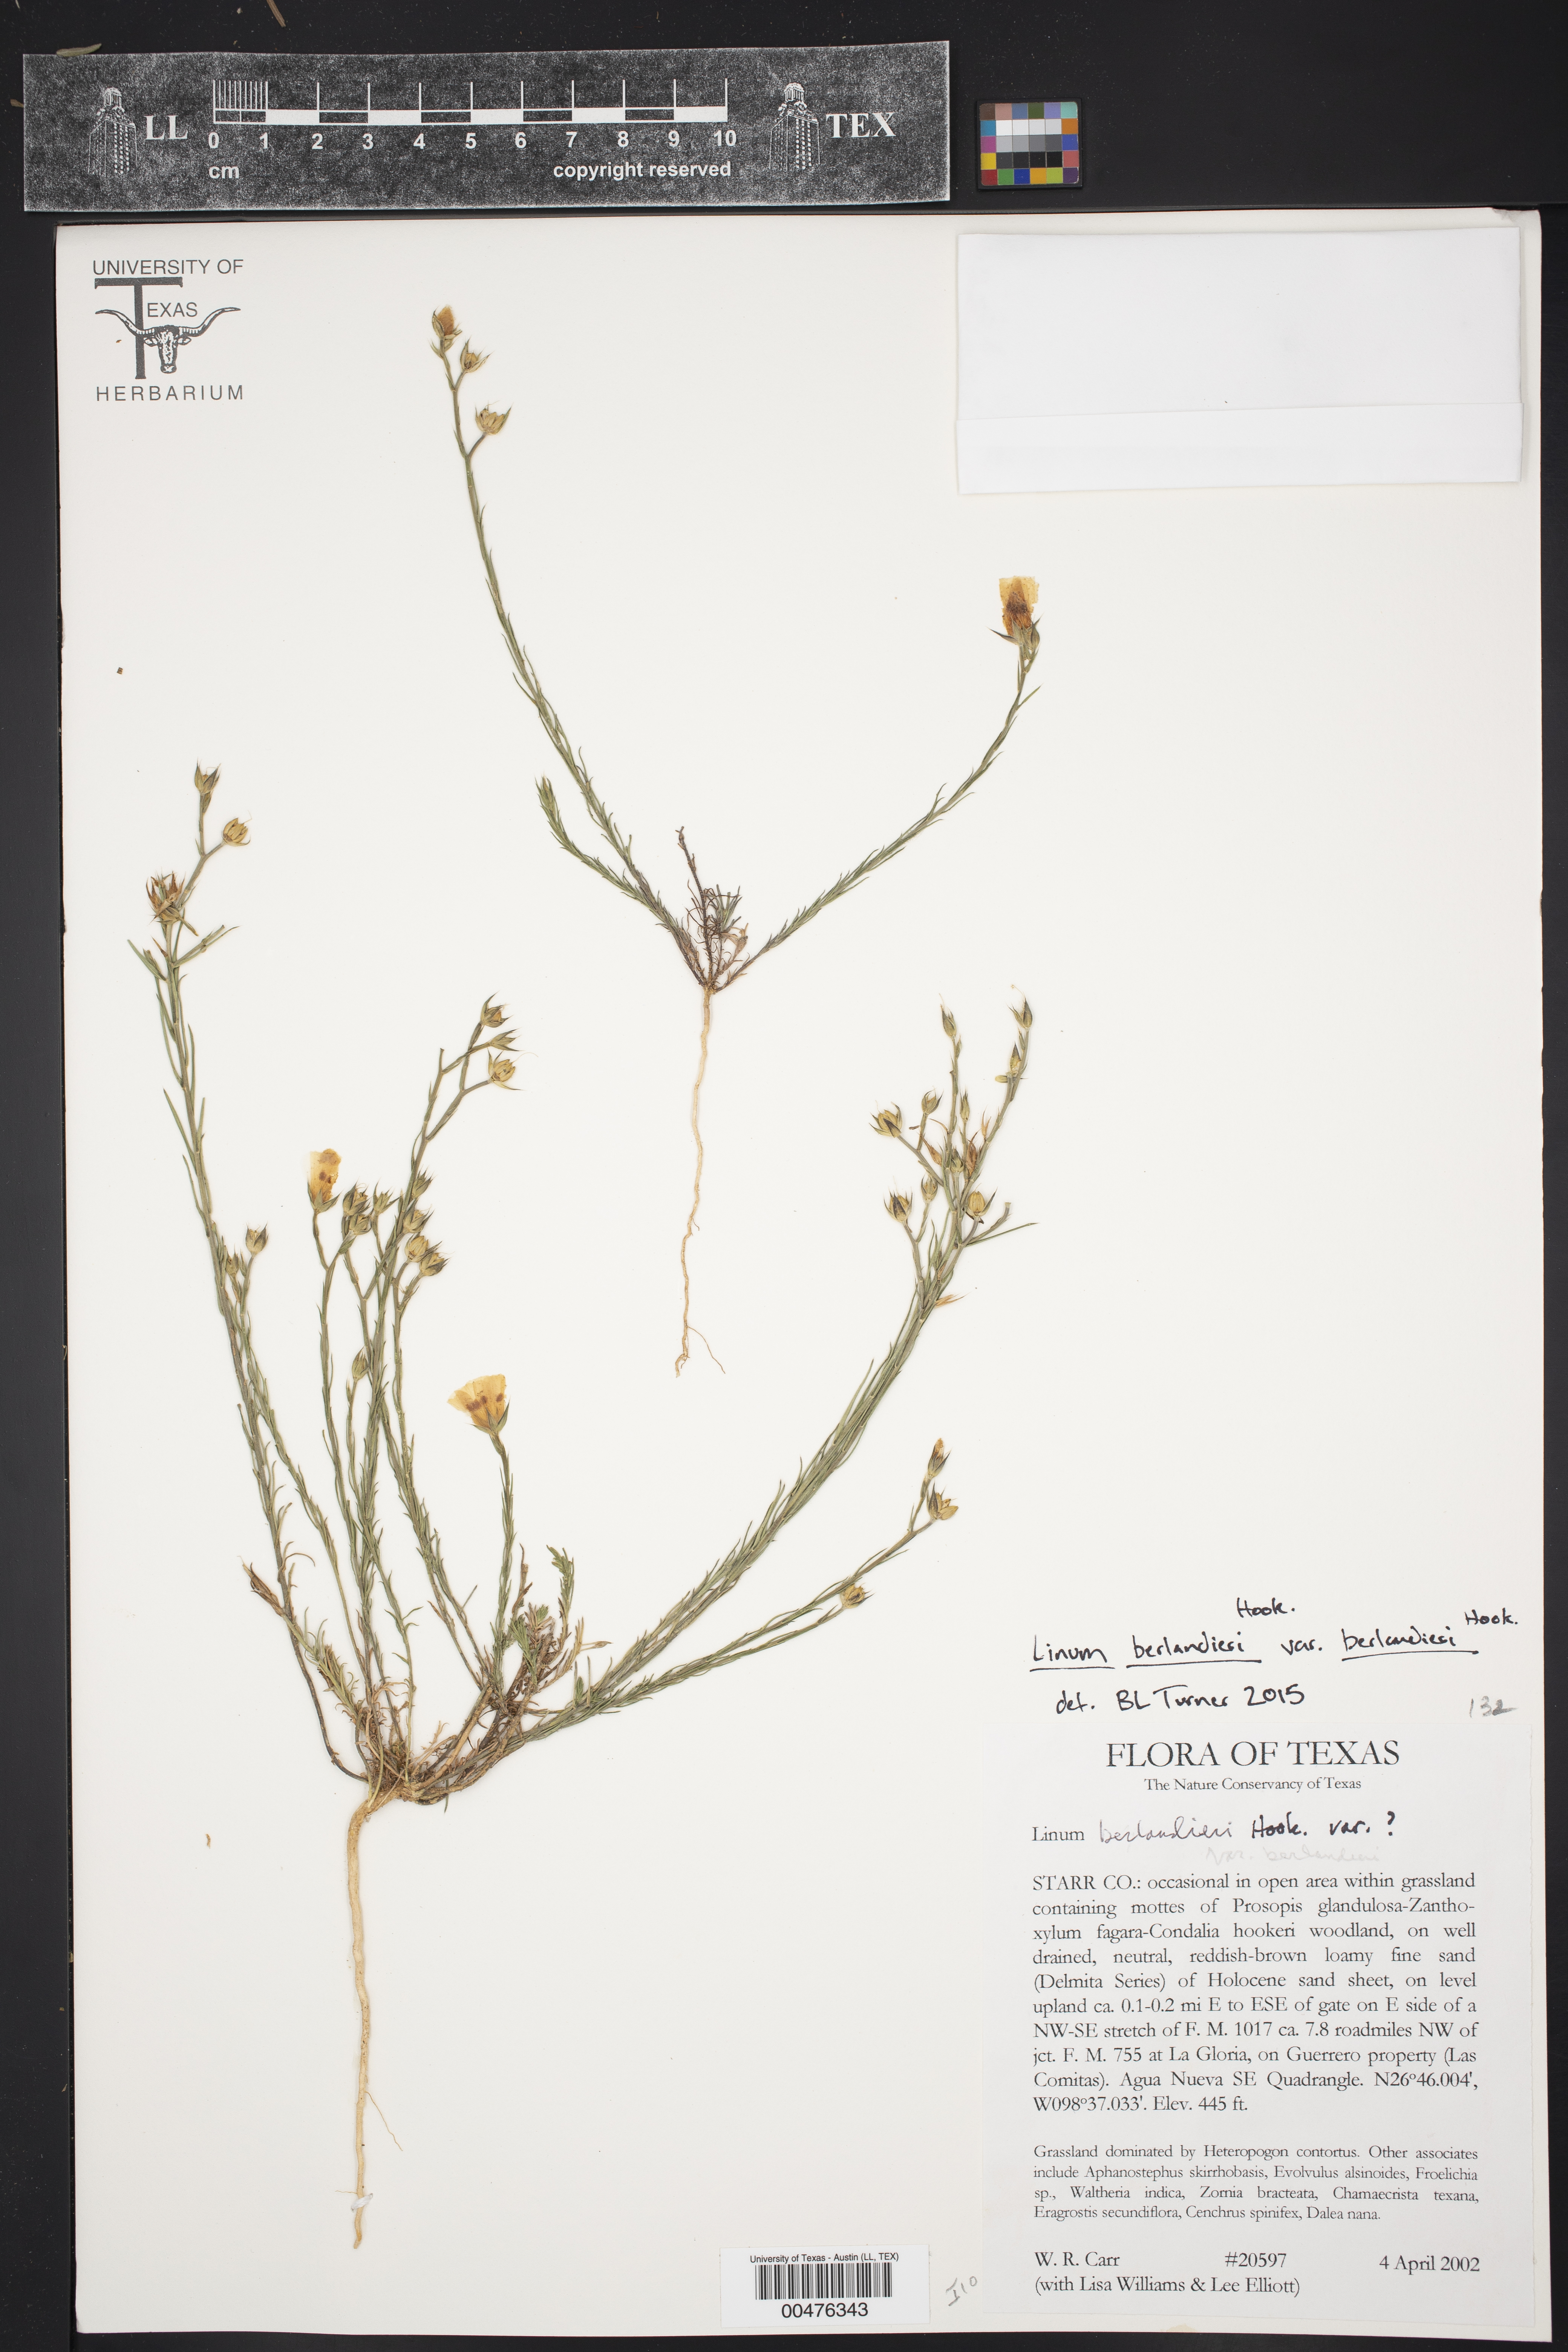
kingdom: Plantae
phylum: Tracheophyta
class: Magnoliopsida
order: Malpighiales
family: Linaceae
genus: Linum
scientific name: Linum berlandieri
